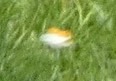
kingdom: Animalia
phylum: Arthropoda
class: Insecta
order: Lepidoptera
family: Pieridae
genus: Anthocharis
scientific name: Anthocharis cardamines
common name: Aurora
